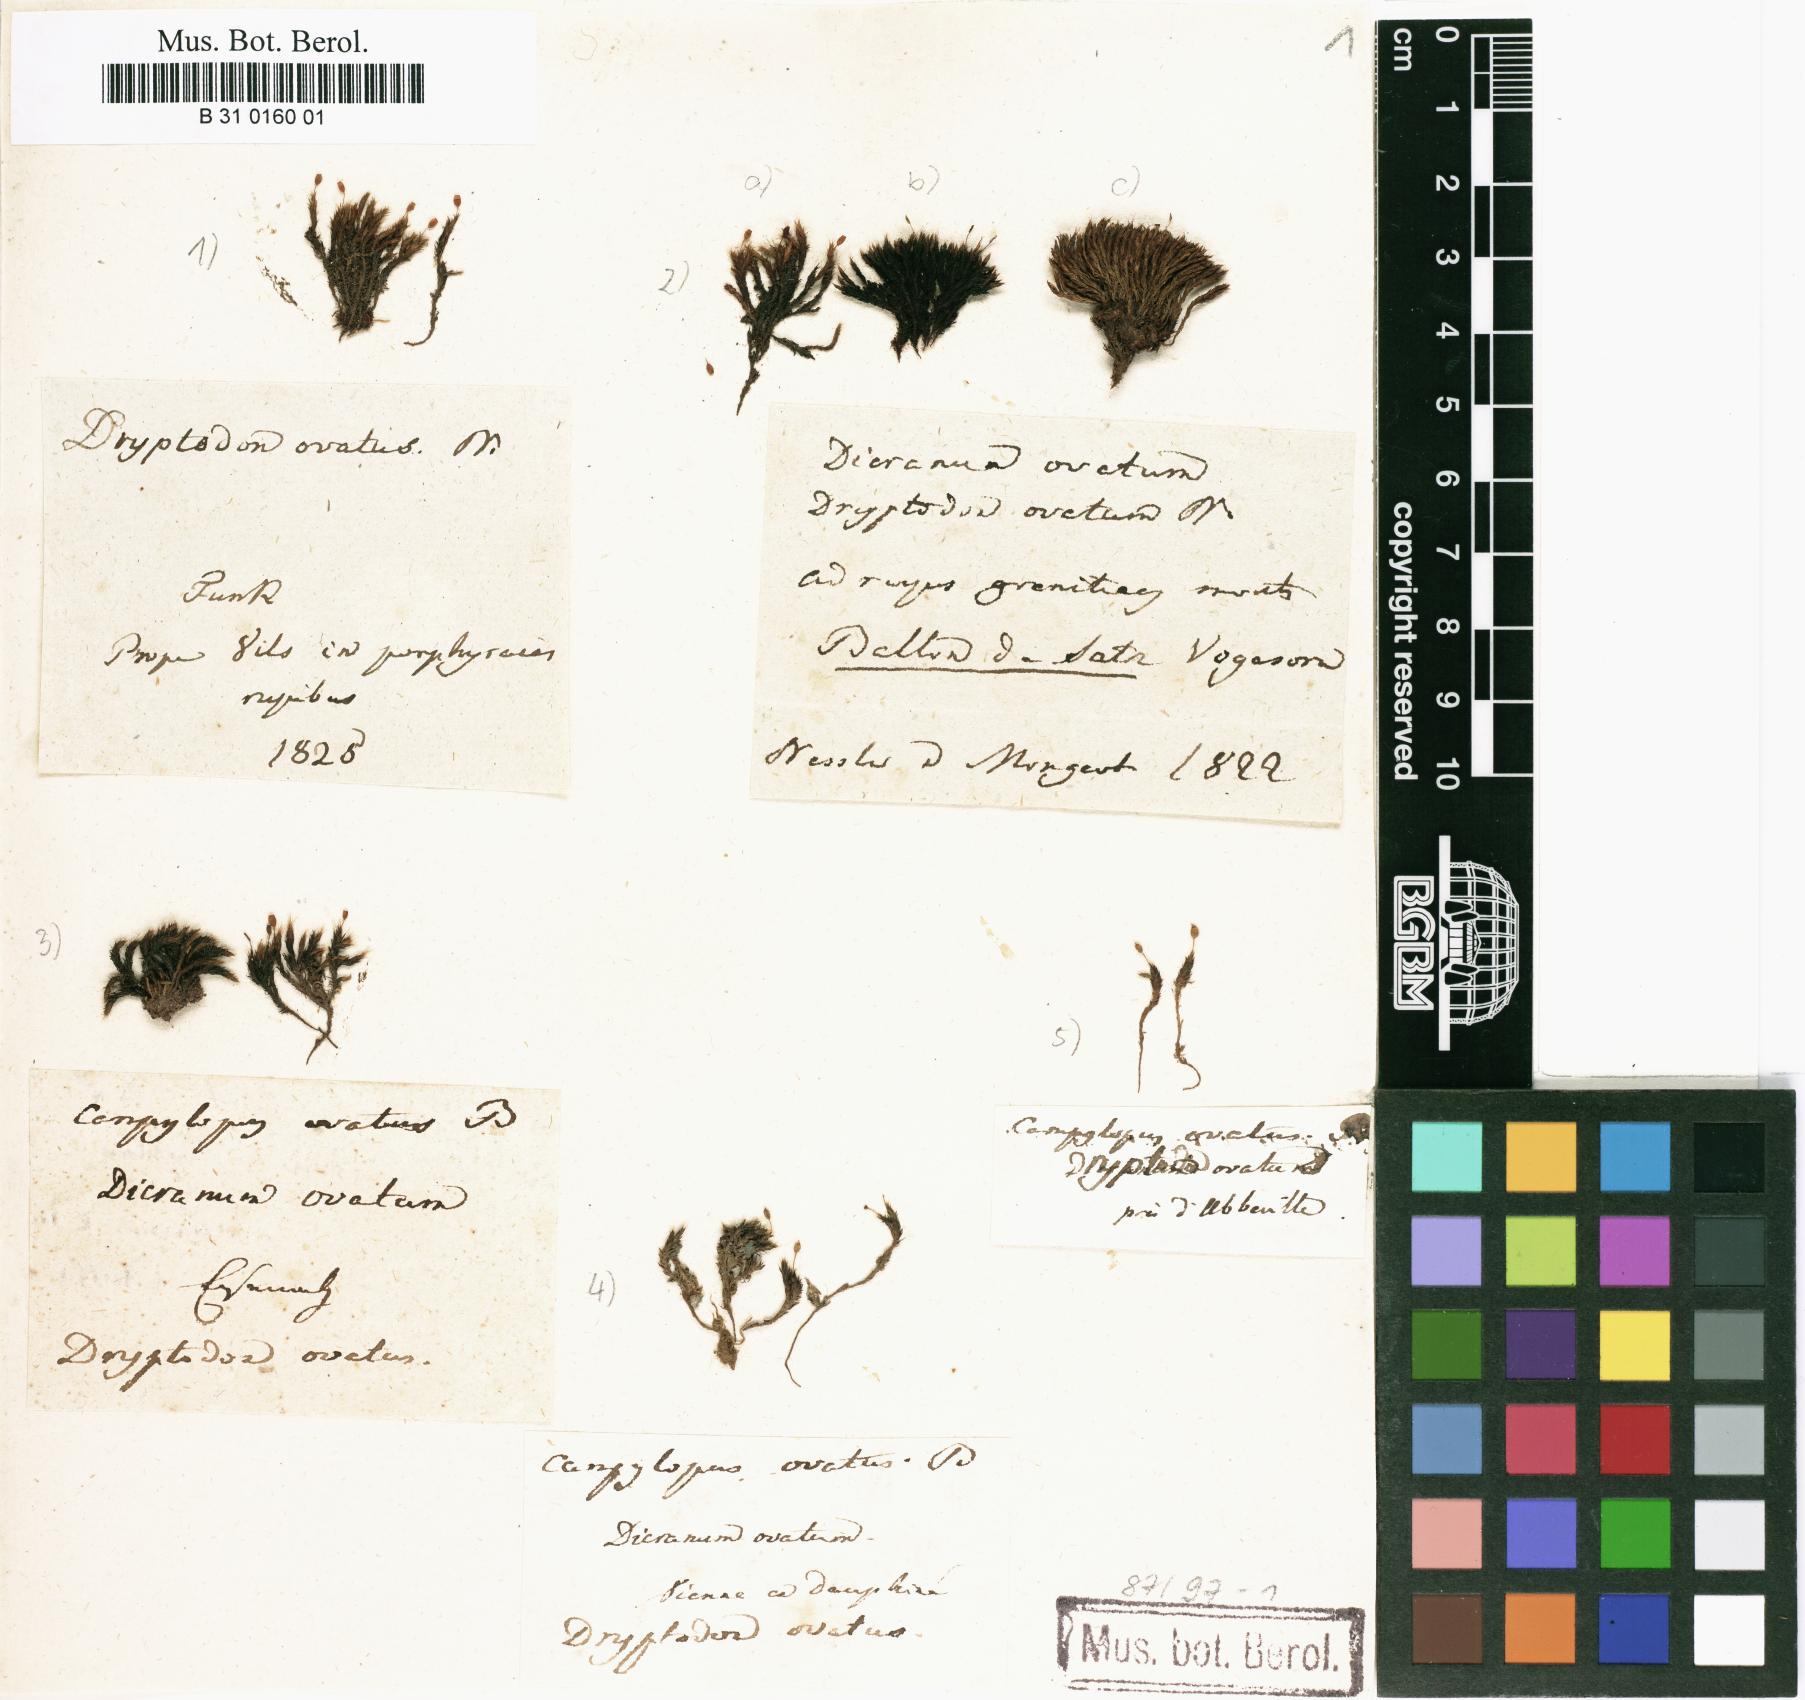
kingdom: Plantae
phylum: Bryophyta
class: Bryopsida
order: Grimmiales
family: Grimmiaceae
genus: Grimmia
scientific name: Grimmia ovalis
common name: Oval grimmia
